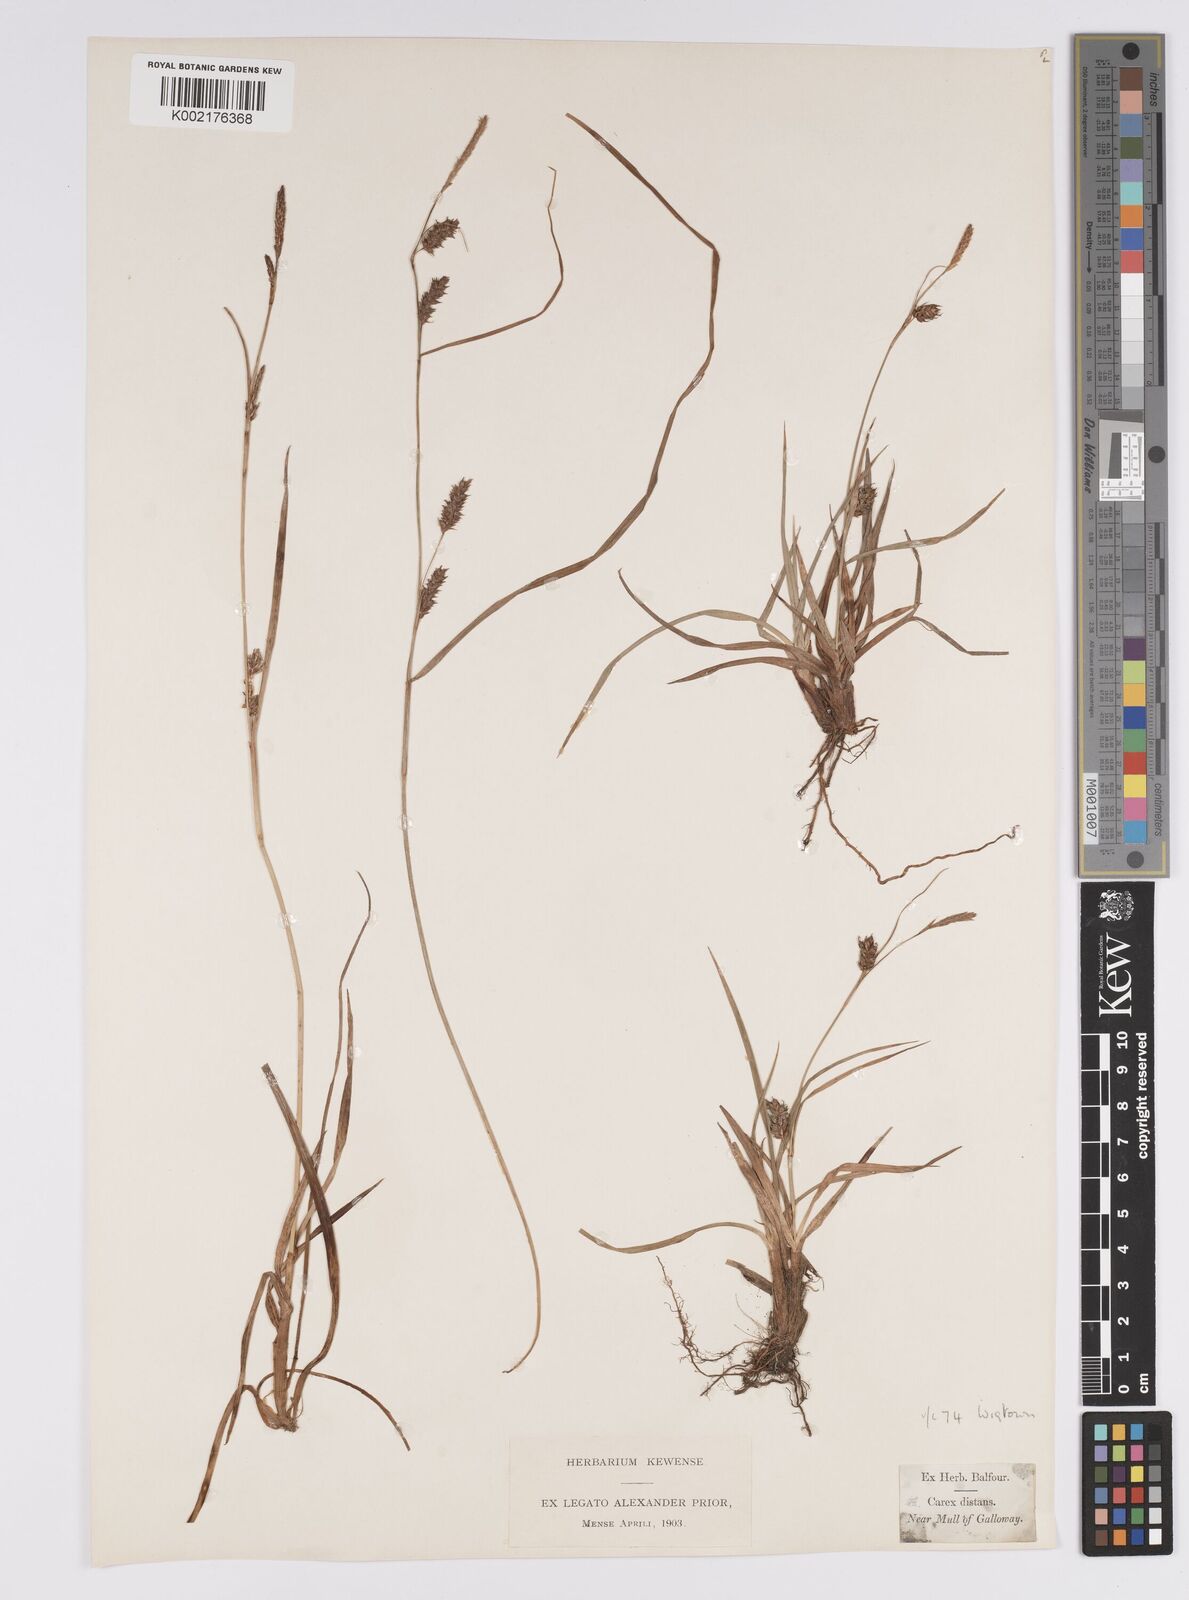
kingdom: Plantae
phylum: Tracheophyta
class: Liliopsida
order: Poales
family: Cyperaceae
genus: Carex
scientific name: Carex distans
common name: Distant sedge
